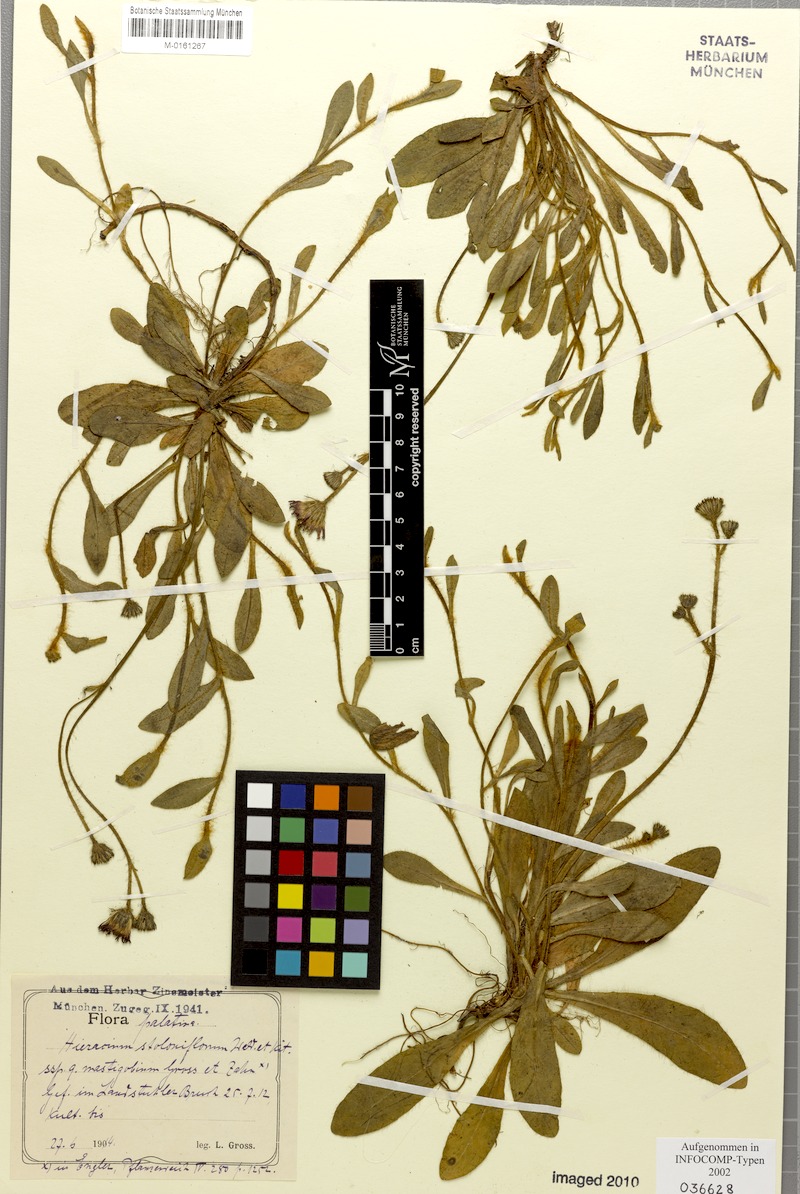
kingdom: Plantae
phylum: Tracheophyta
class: Magnoliopsida
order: Asterales
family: Asteraceae
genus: Pilosella
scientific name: Pilosella stoloniflora
